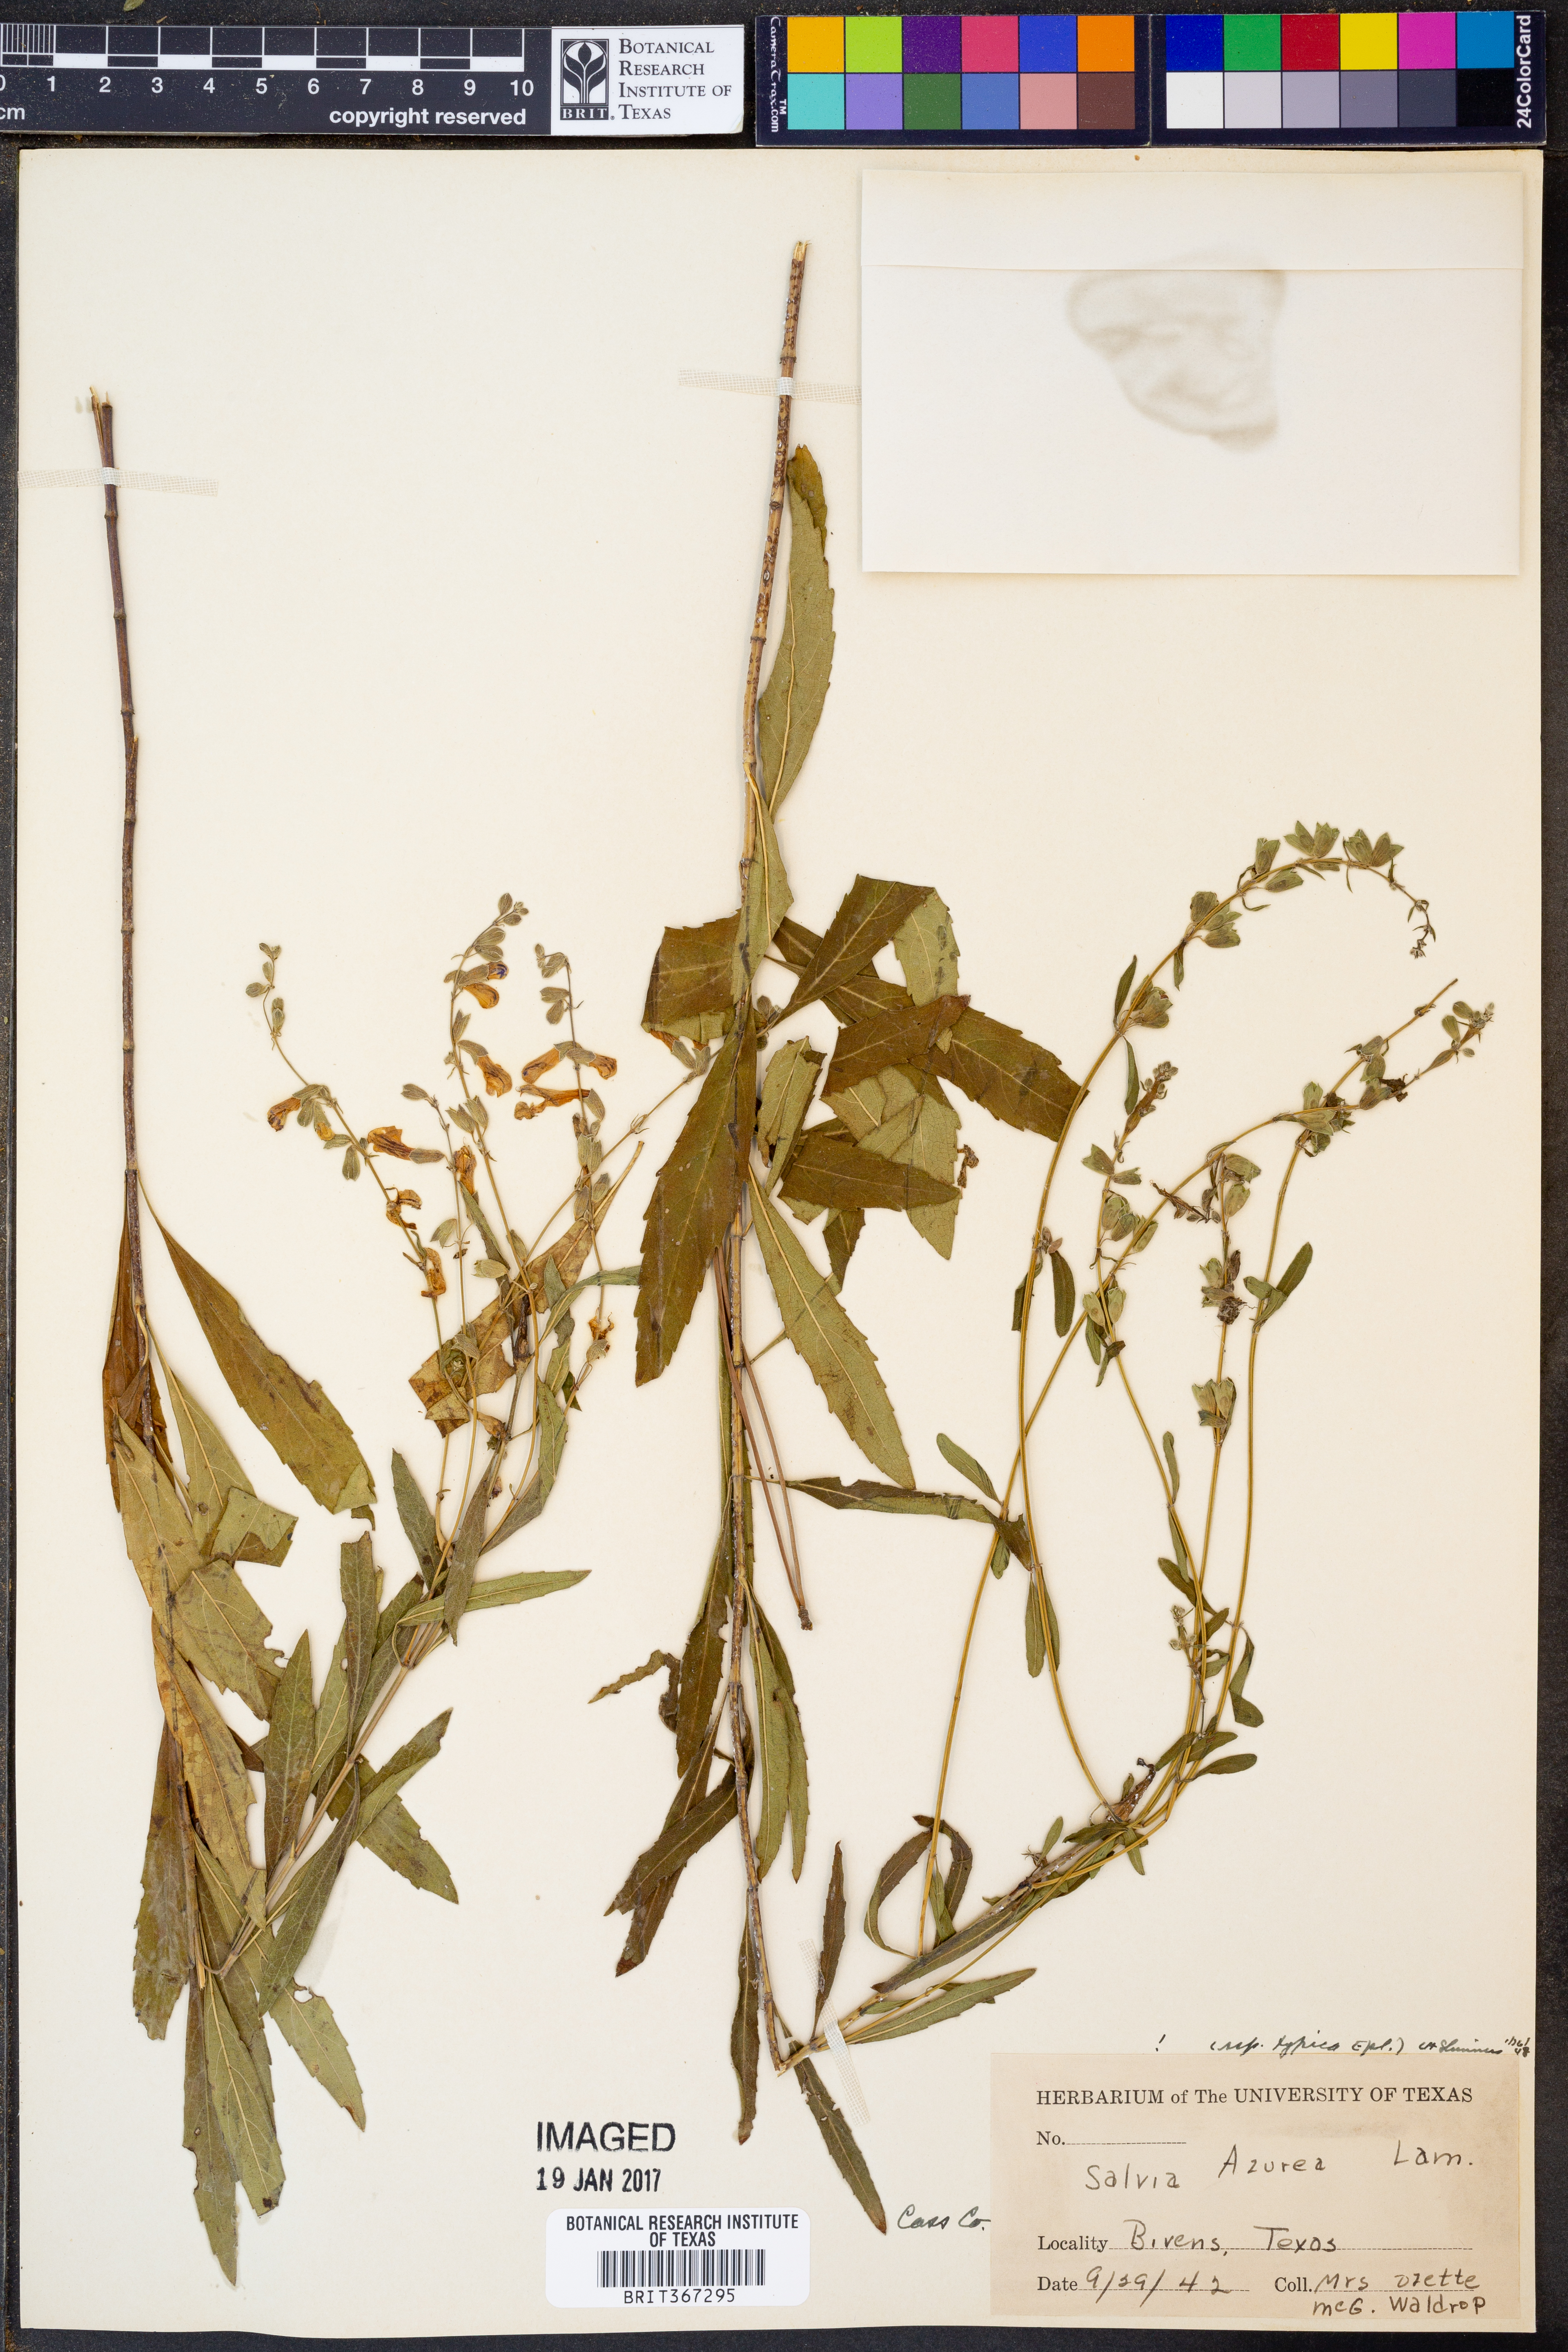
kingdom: Plantae
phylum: Tracheophyta
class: Magnoliopsida
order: Lamiales
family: Lamiaceae
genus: Salvia
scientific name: Salvia azurea
